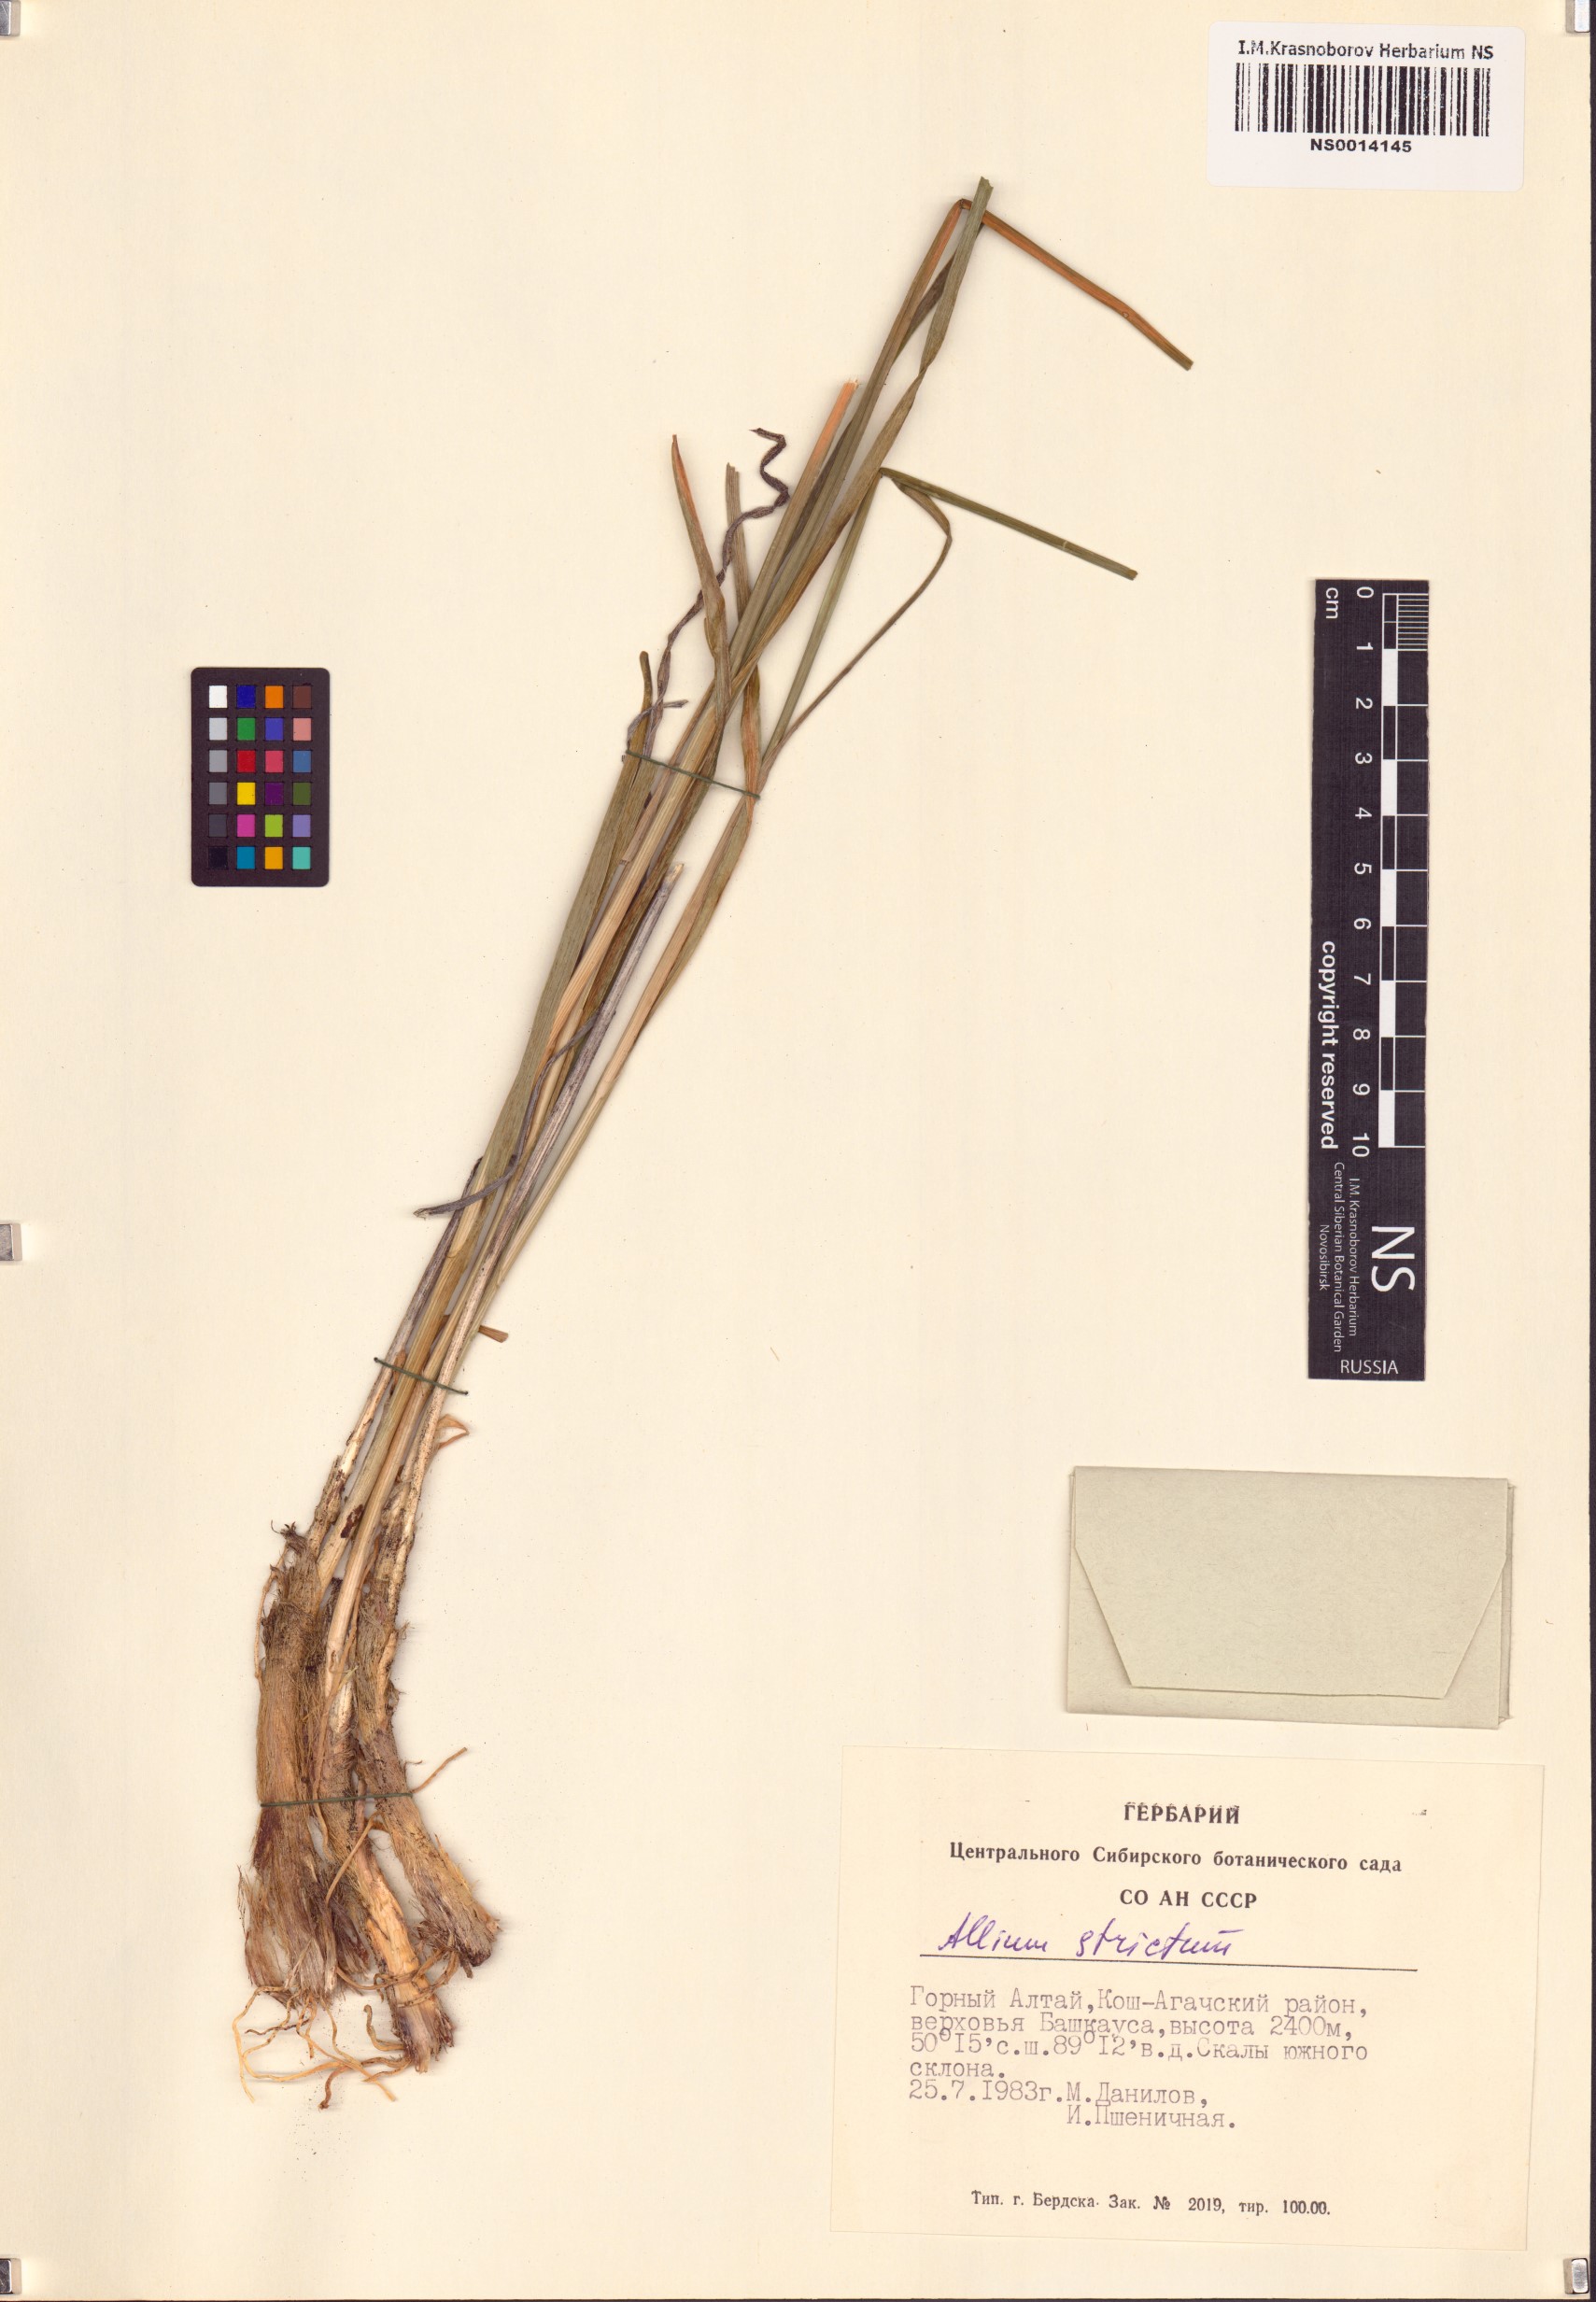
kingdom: Plantae
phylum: Tracheophyta
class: Liliopsida
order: Asparagales
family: Amaryllidaceae
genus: Allium
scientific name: Allium strictum
